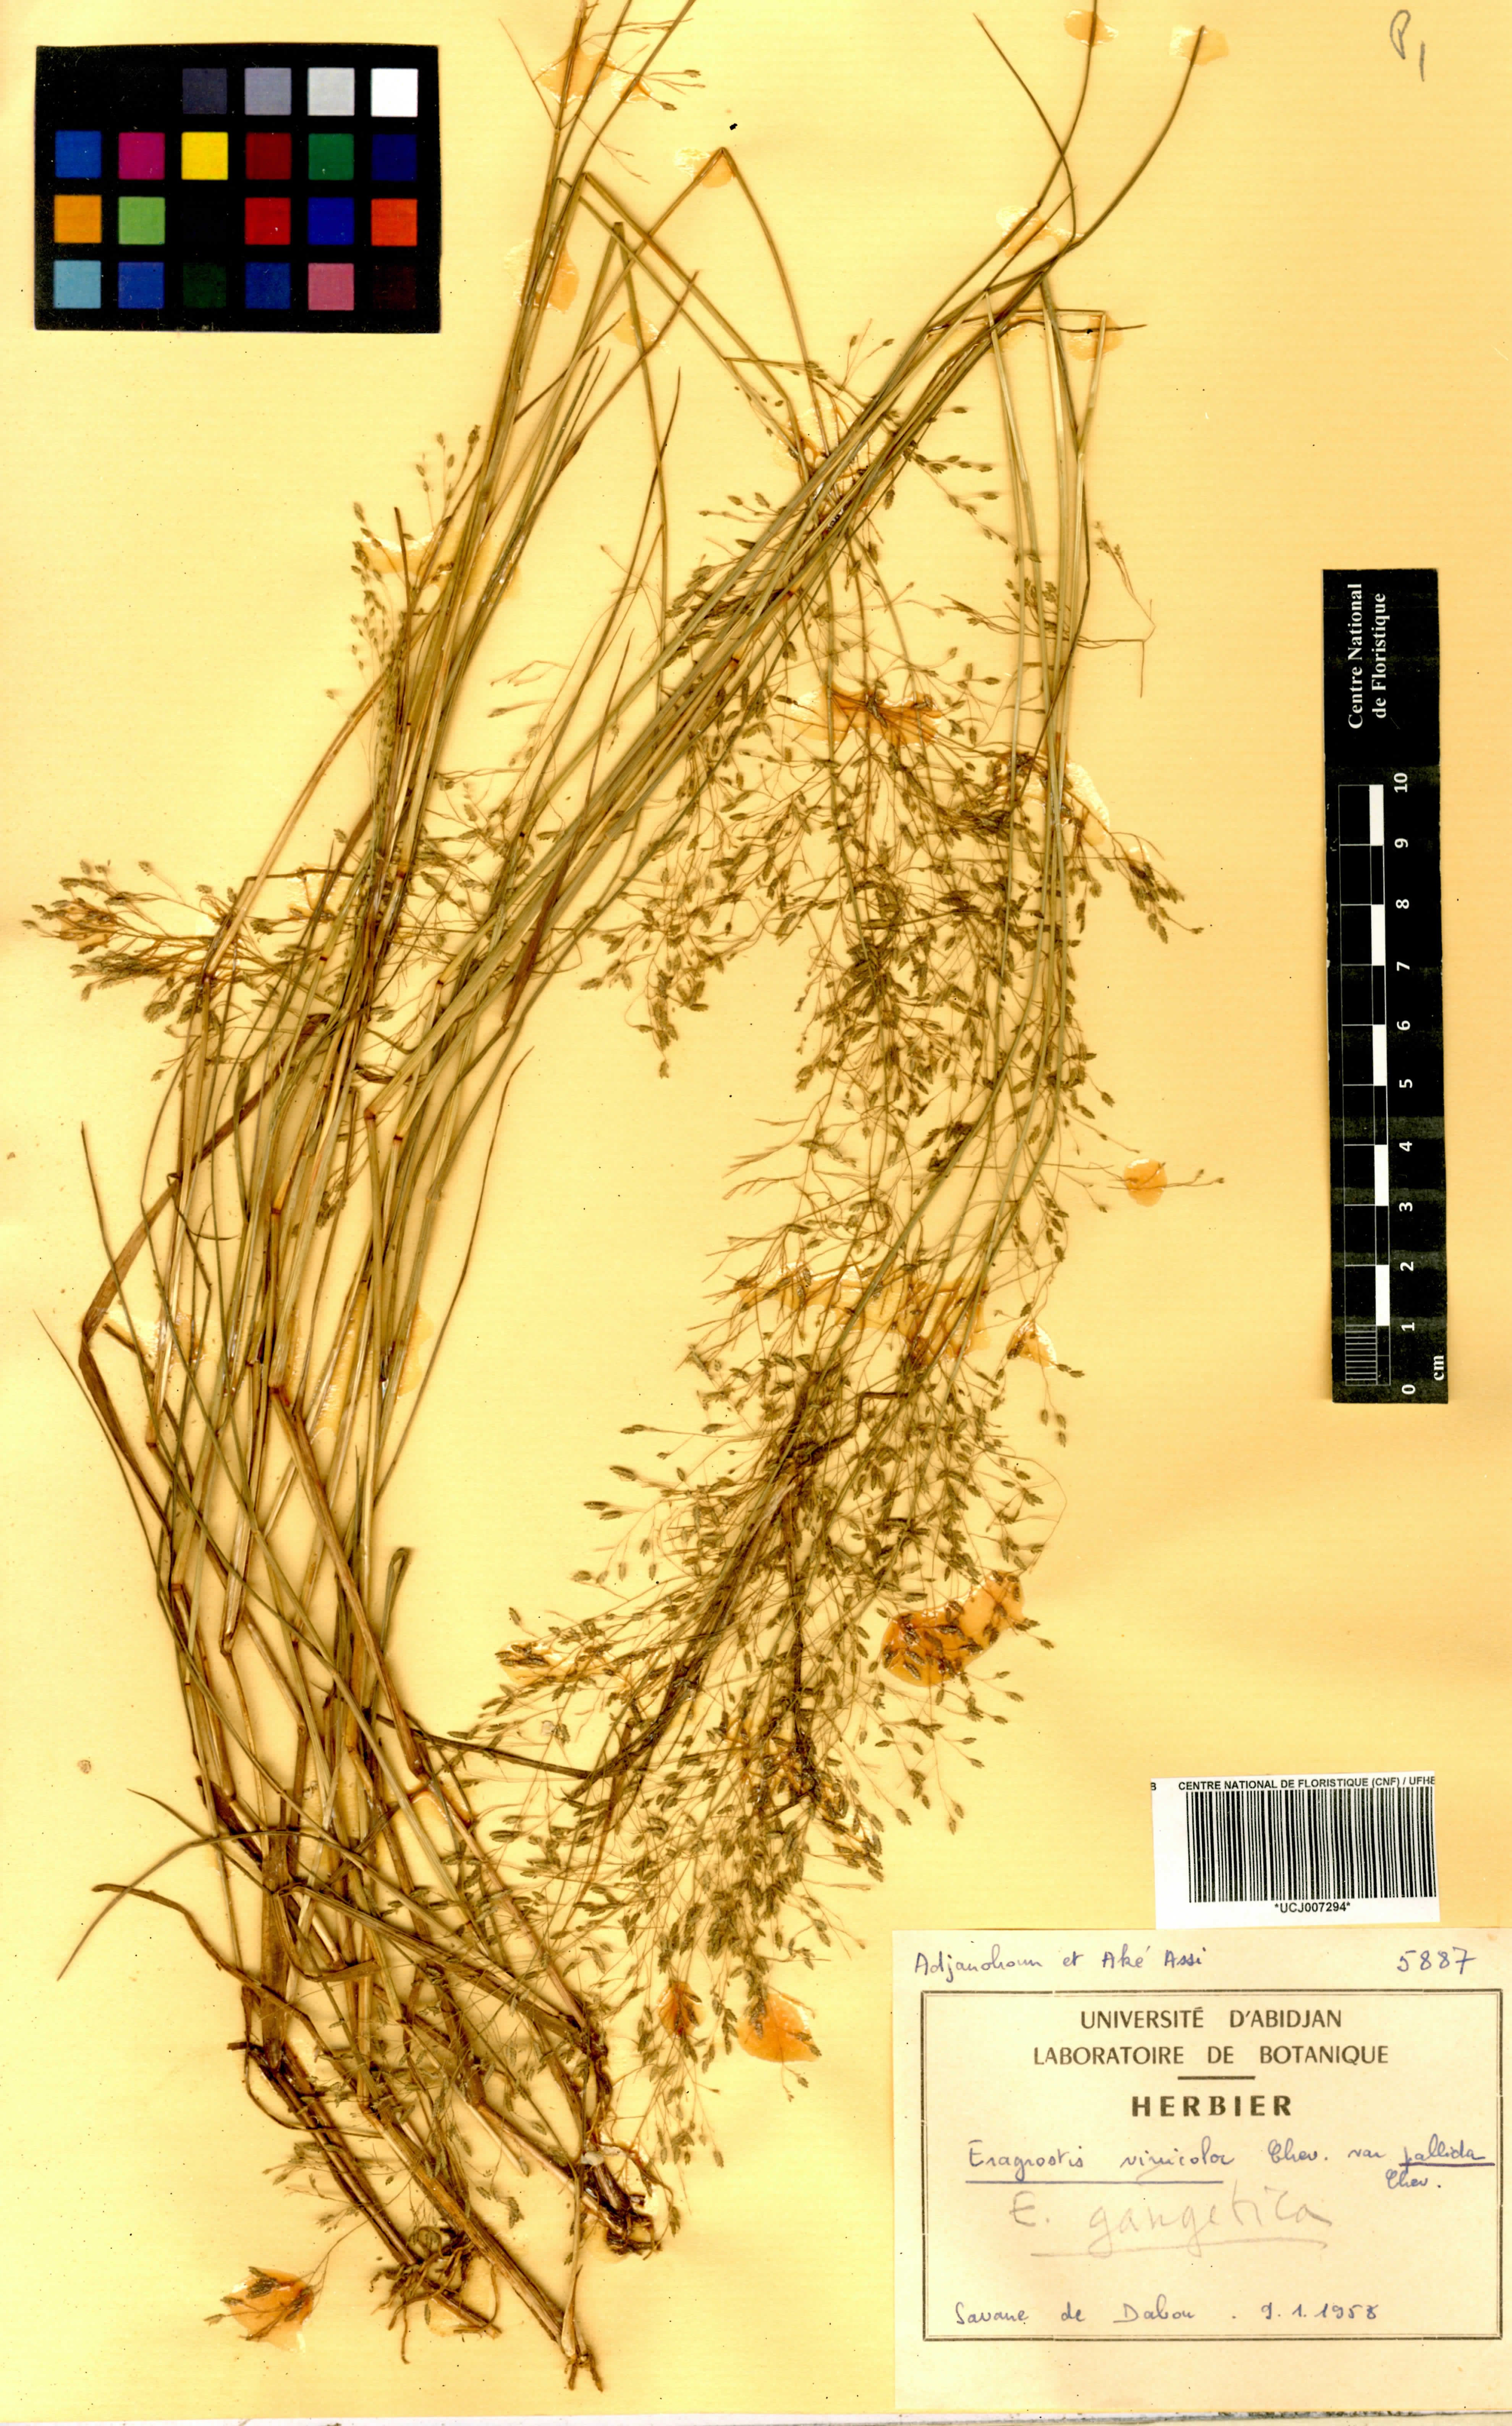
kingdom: Plantae
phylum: Tracheophyta
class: Liliopsida
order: Poales
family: Poaceae
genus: Eragrostis
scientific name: Eragrostis gangetica
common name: Slimflower lovegrass
